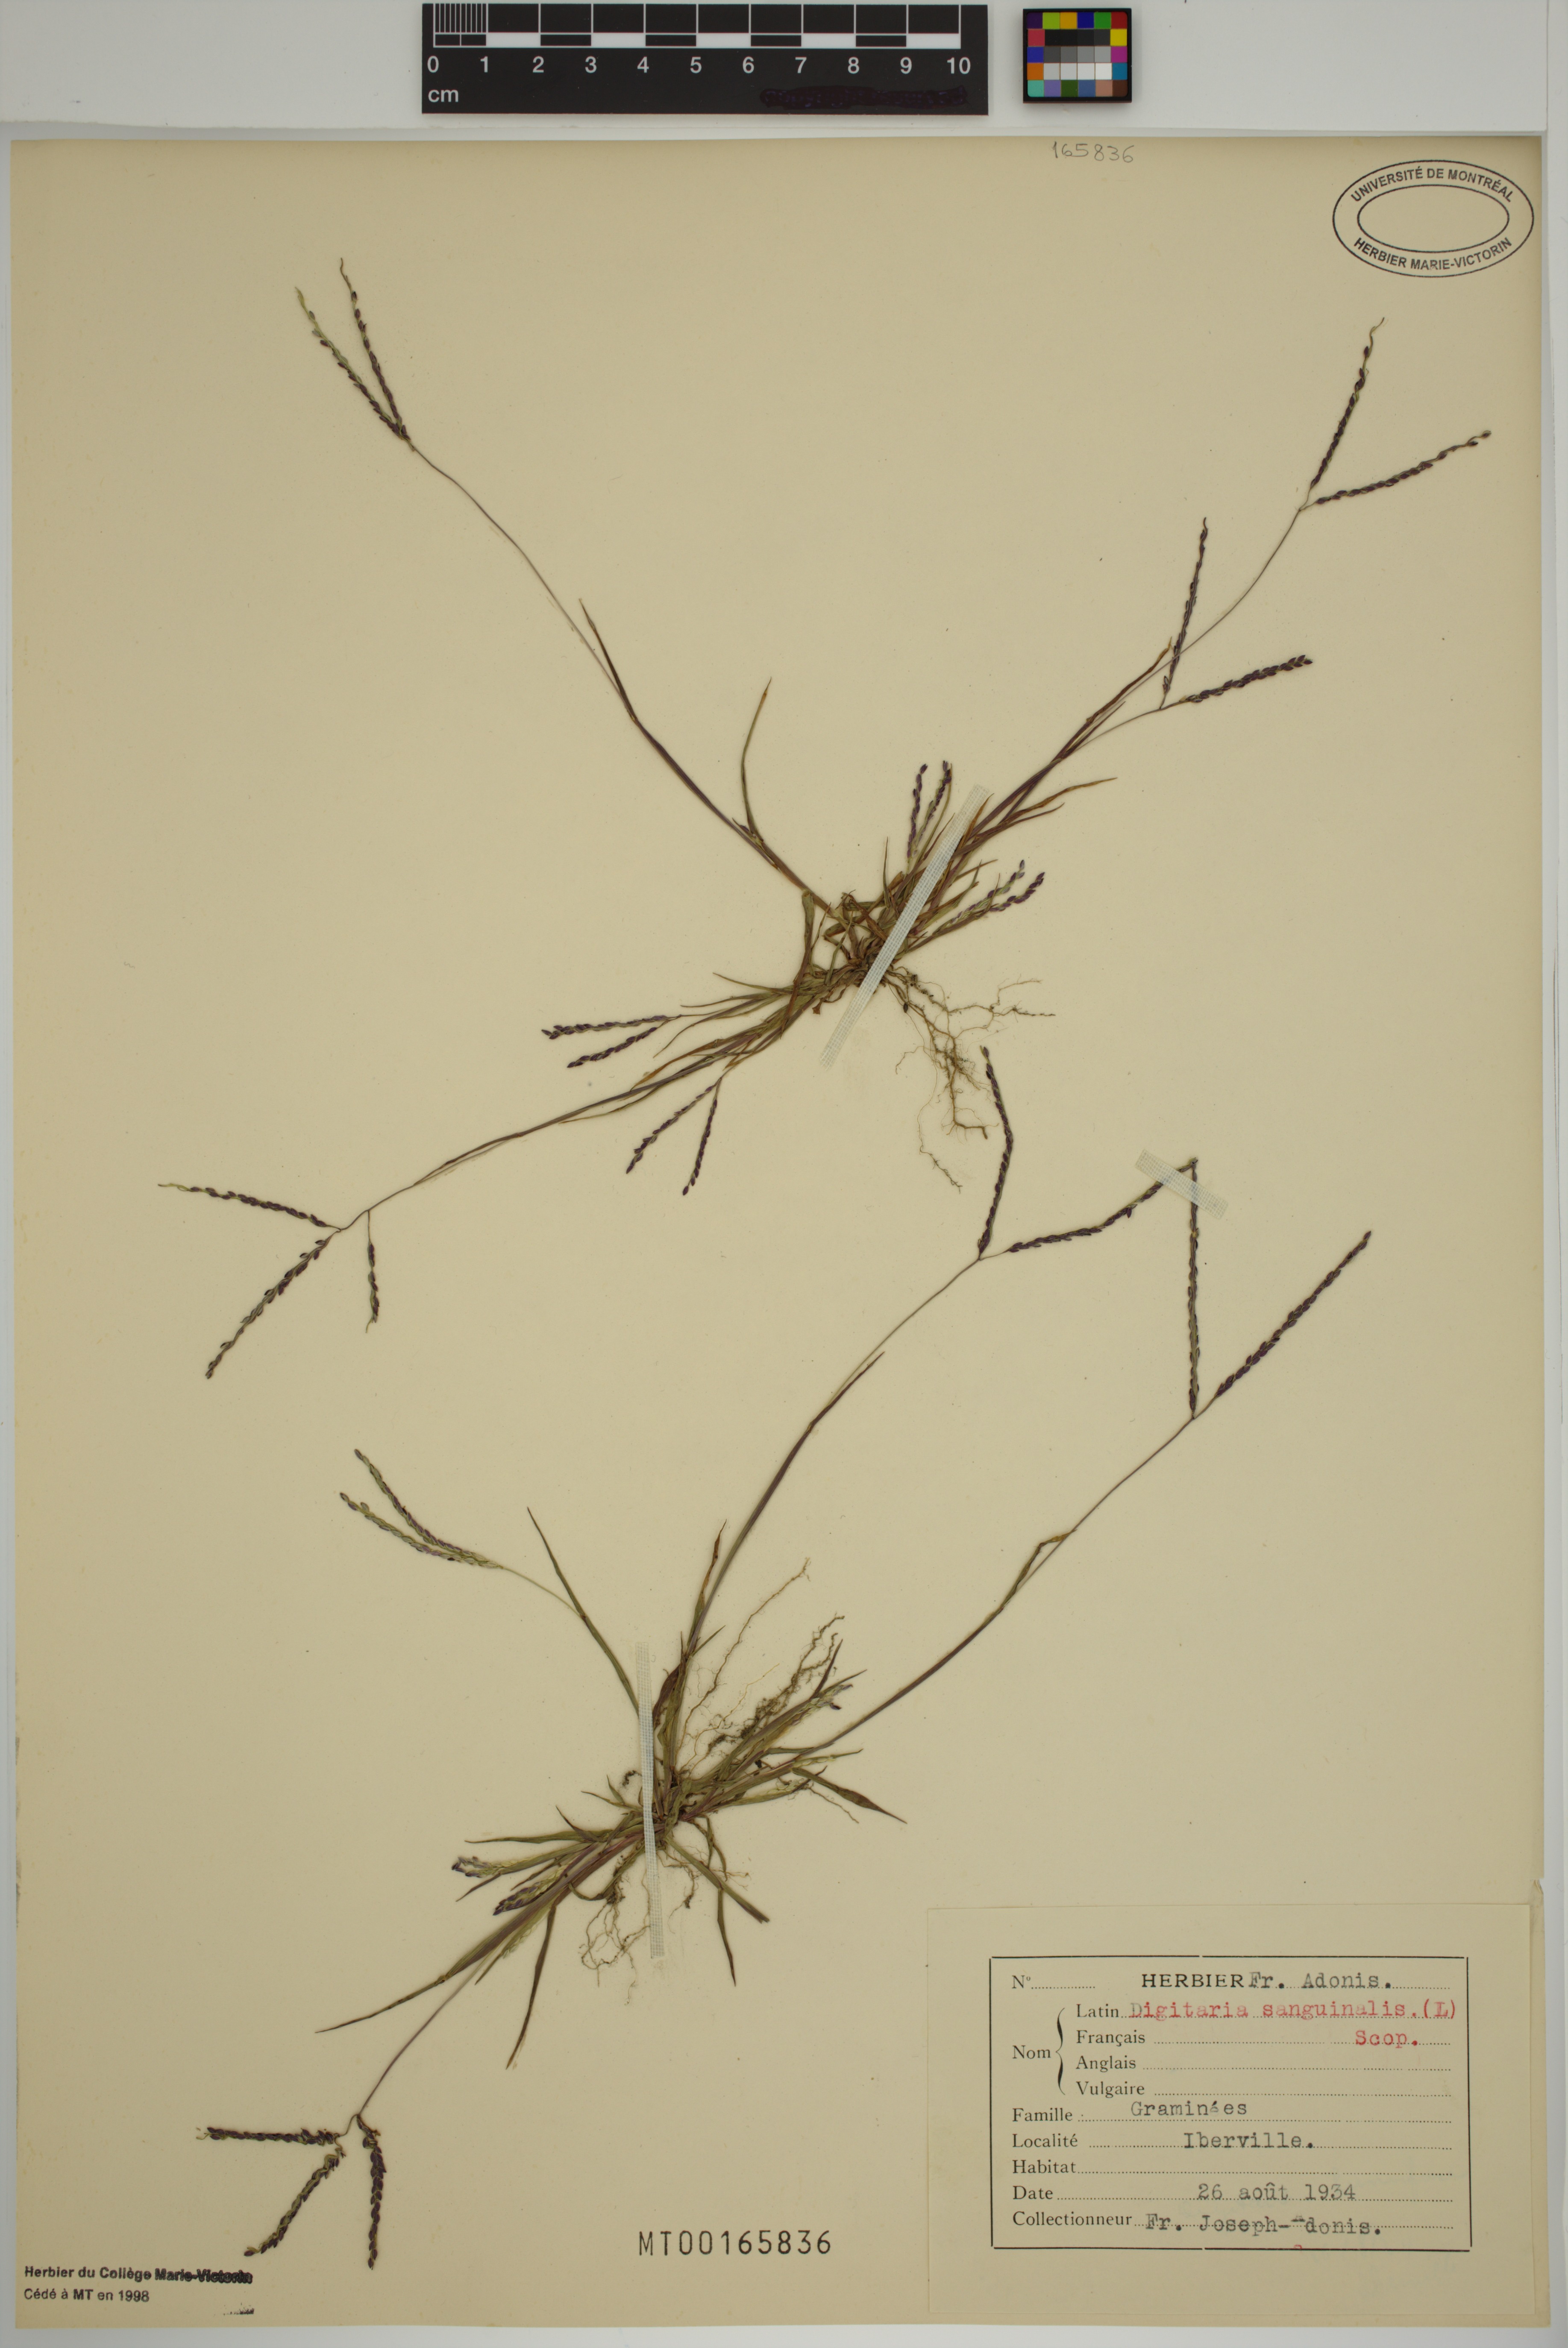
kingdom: Plantae
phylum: Tracheophyta
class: Liliopsida
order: Poales
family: Poaceae
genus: Digitaria
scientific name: Digitaria sanguinalis
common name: Hairy crabgrass
